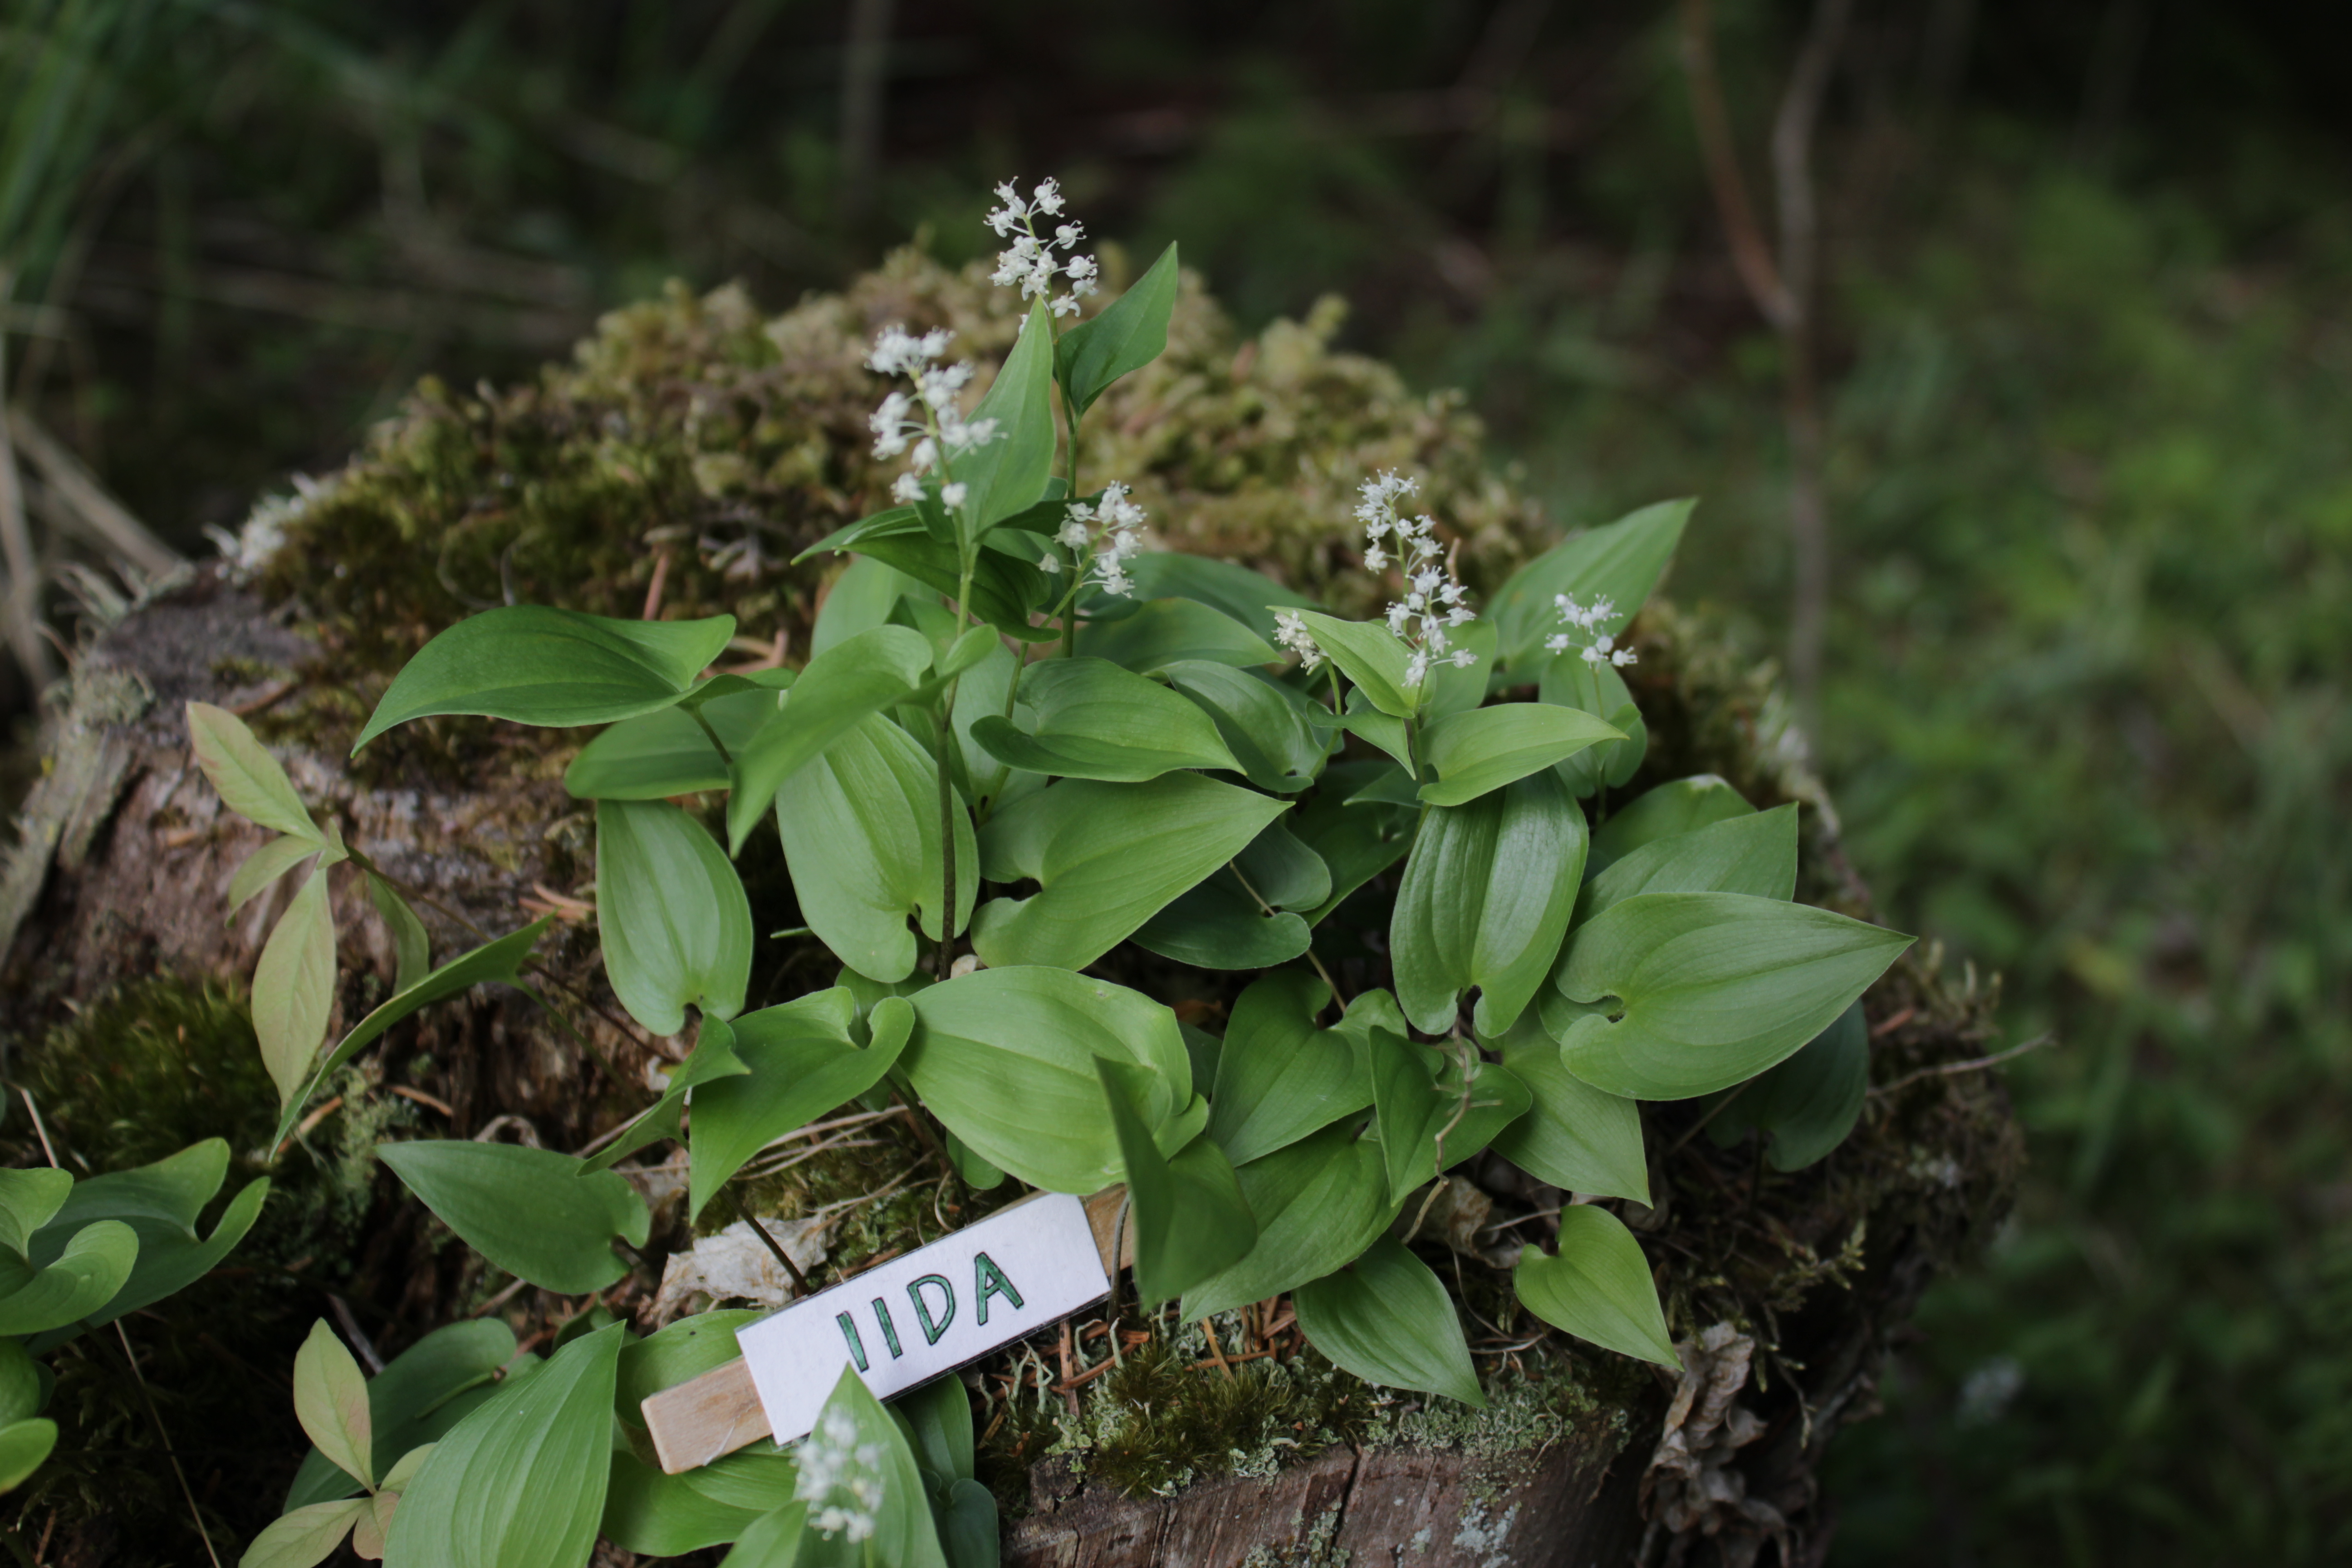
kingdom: Plantae
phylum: Tracheophyta
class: Liliopsida
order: Asparagales
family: Asparagaceae
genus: Maianthemum
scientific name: Maianthemum bifolium
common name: May lily
